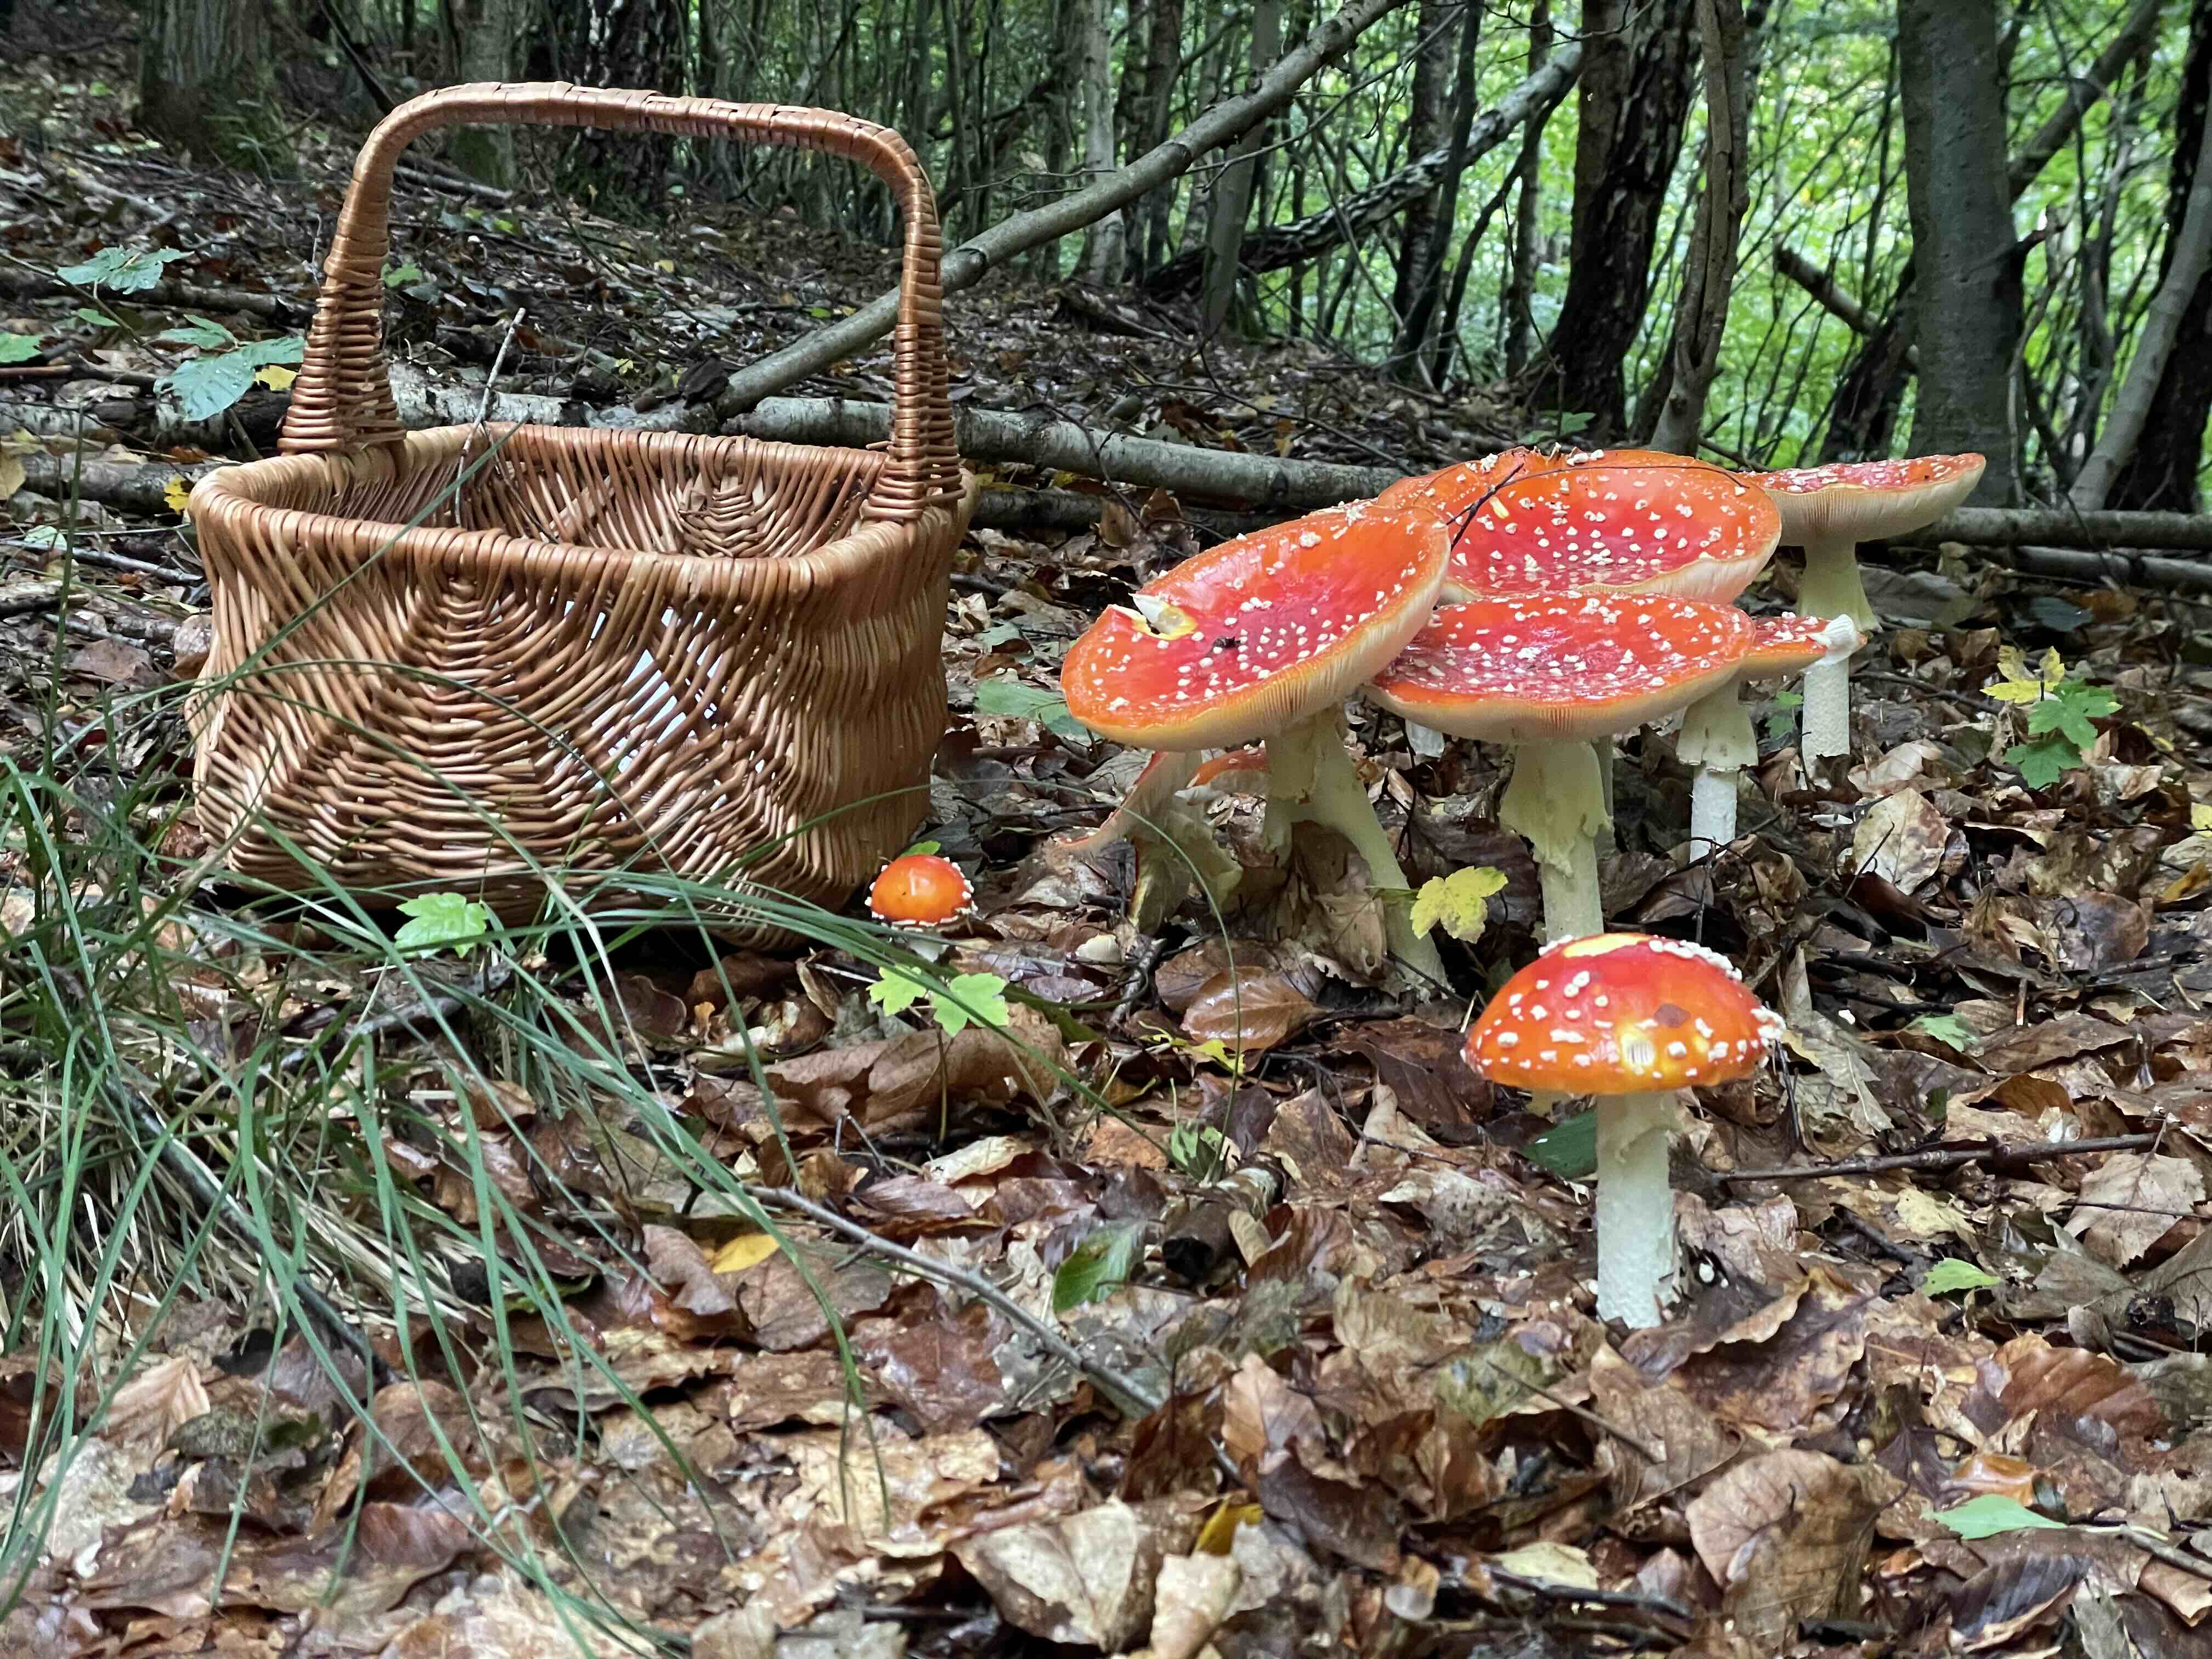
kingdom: Fungi
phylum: Basidiomycota
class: Agaricomycetes
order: Agaricales
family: Amanitaceae
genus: Amanita
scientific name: Amanita muscaria
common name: rød fluesvamp
